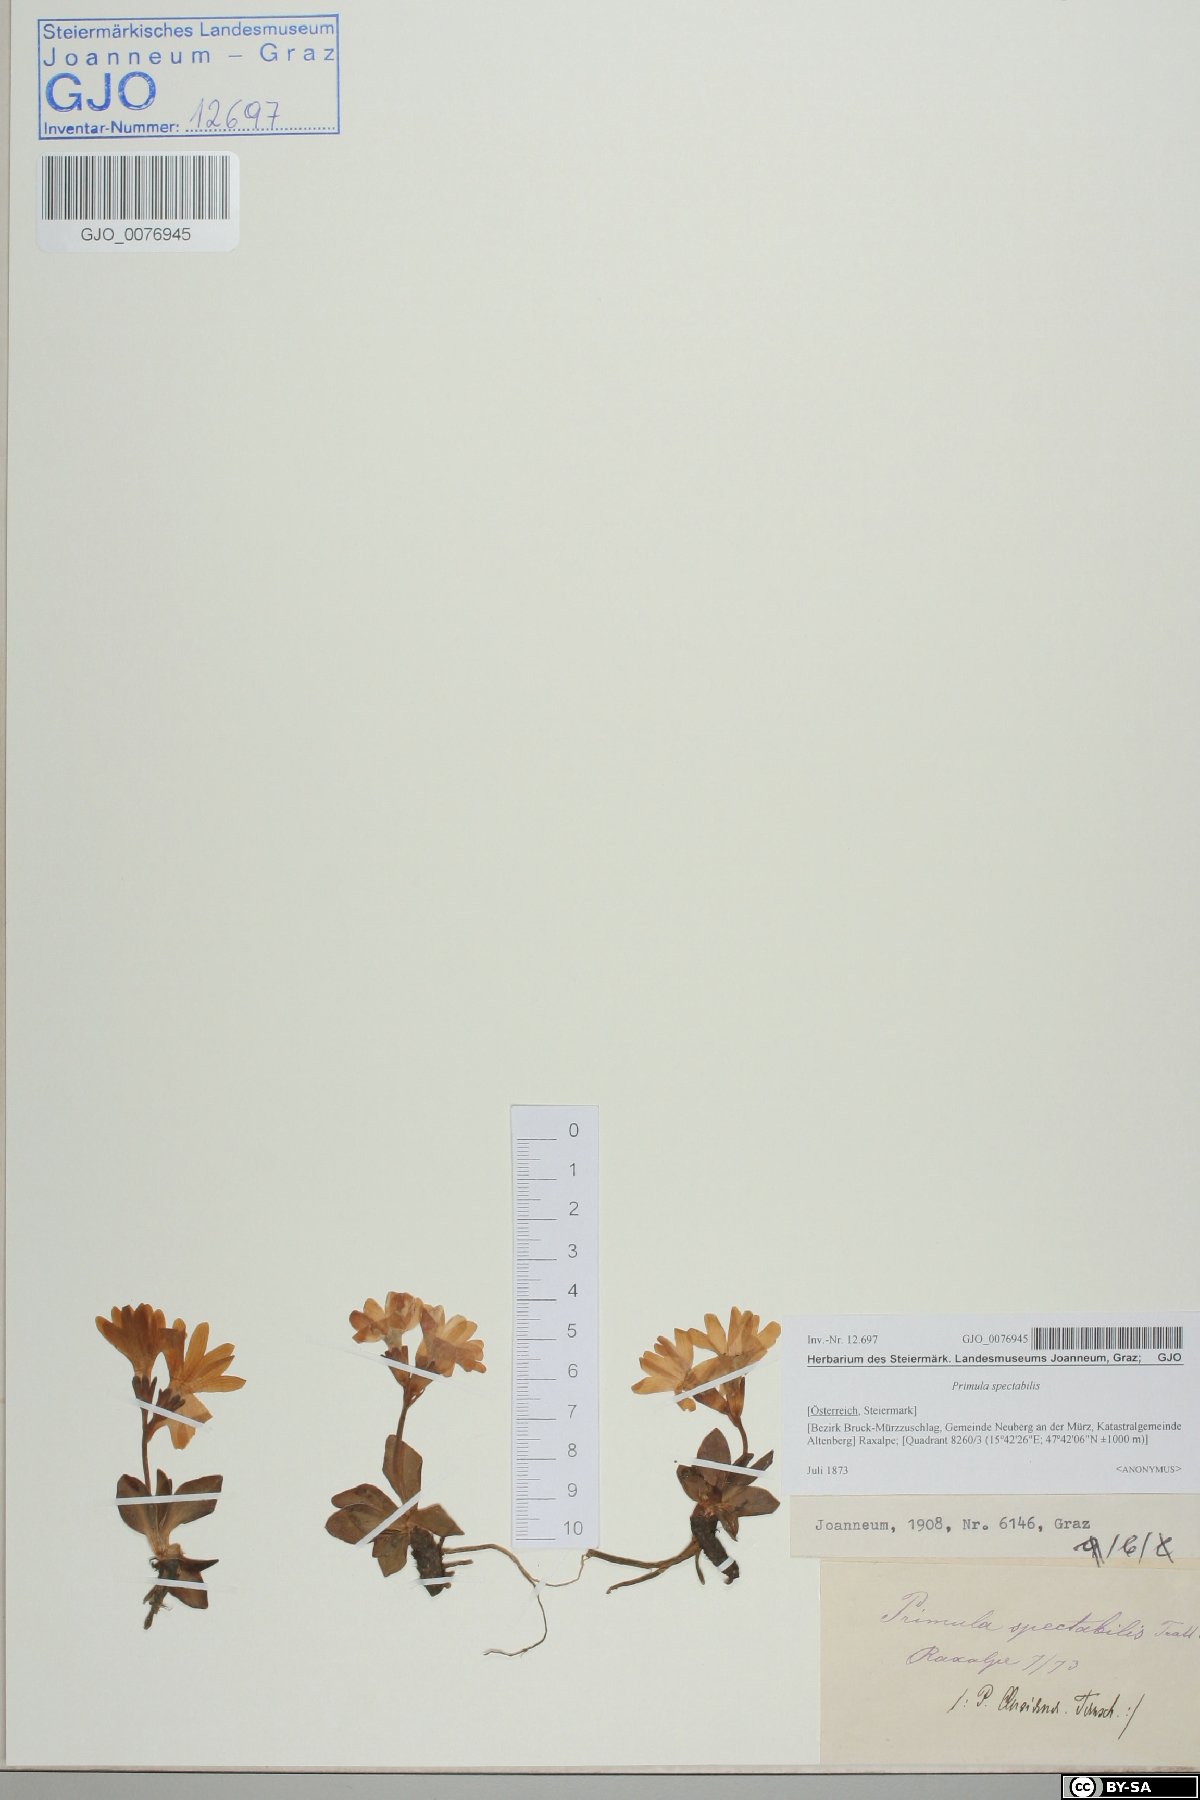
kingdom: Plantae
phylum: Tracheophyta
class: Magnoliopsida
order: Ericales
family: Primulaceae
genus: Primula
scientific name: Primula clusiana
